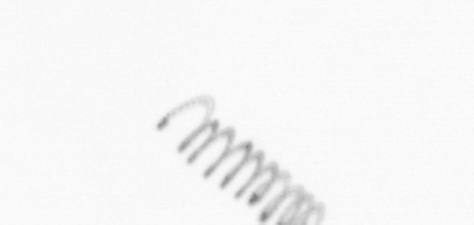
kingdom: Chromista
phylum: Ochrophyta
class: Bacillariophyceae
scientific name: Bacillariophyceae
